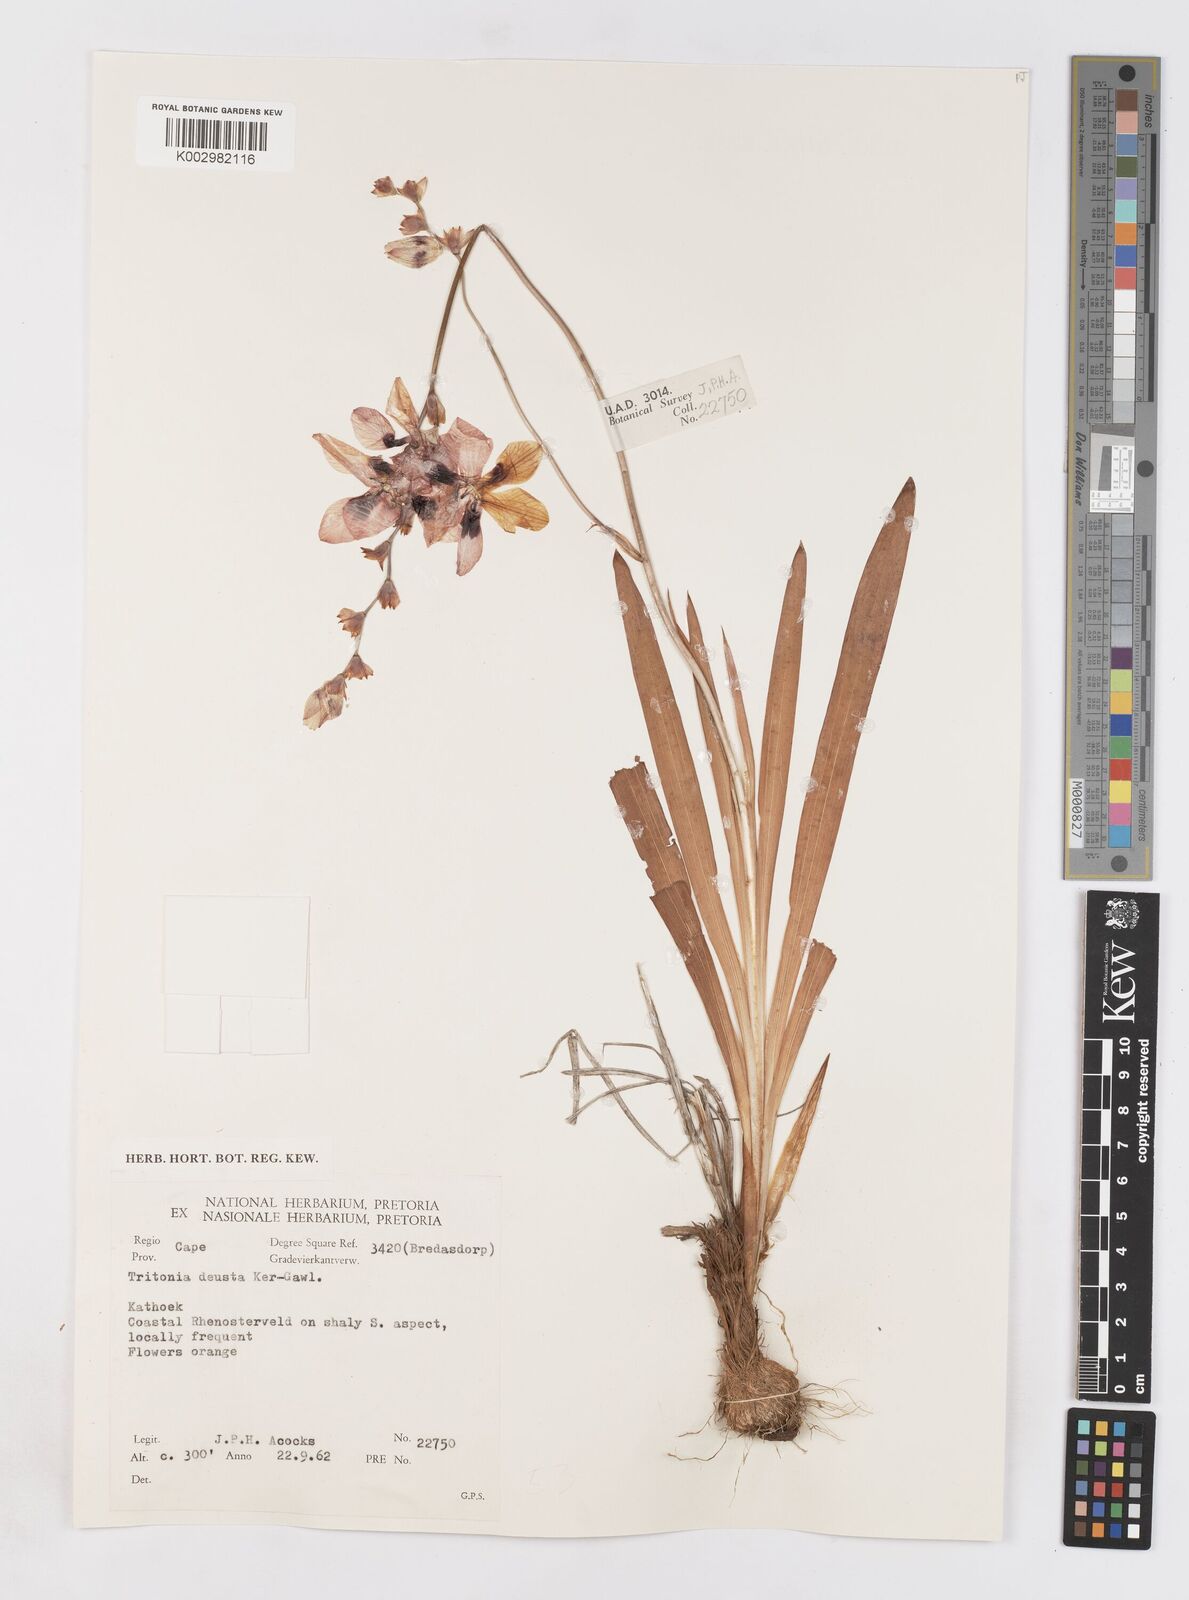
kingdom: Plantae
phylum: Tracheophyta
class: Liliopsida
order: Asparagales
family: Iridaceae
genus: Tritonia
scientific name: Tritonia deusta
